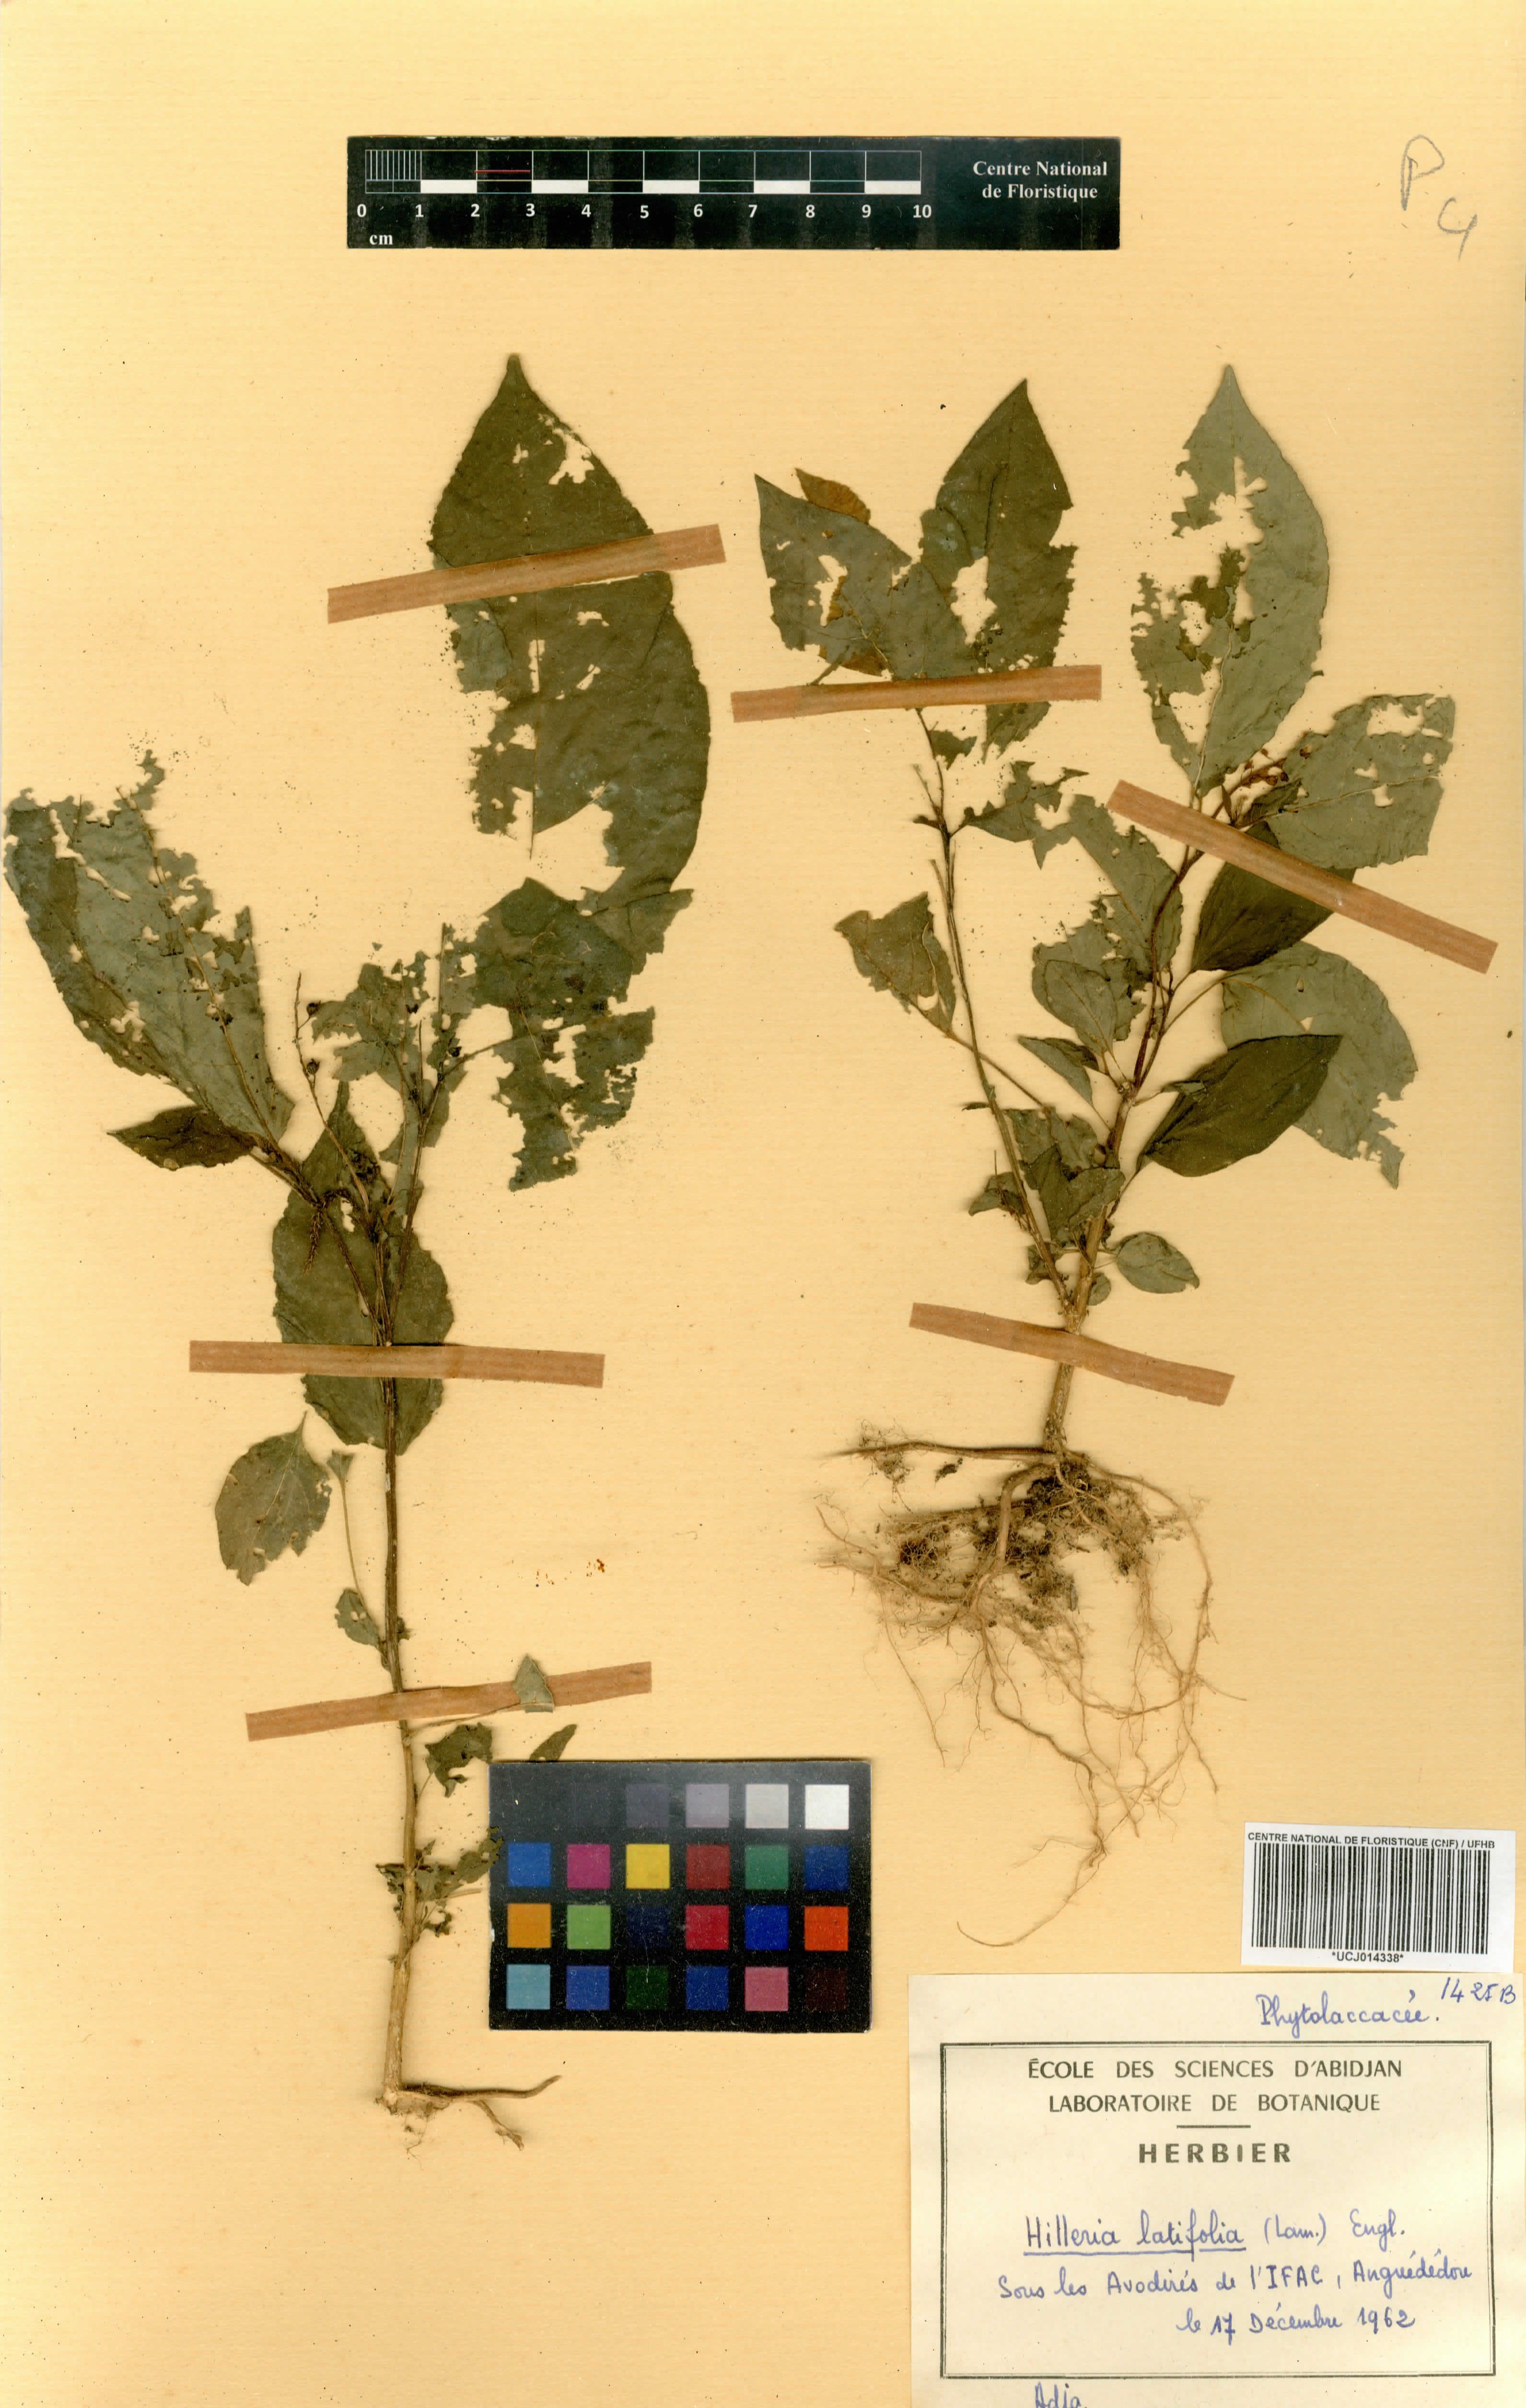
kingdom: Plantae
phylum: Tracheophyta
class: Magnoliopsida
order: Caryophyllales
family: Phytolaccaceae
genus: Hilleria
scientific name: Hilleria latifolia
